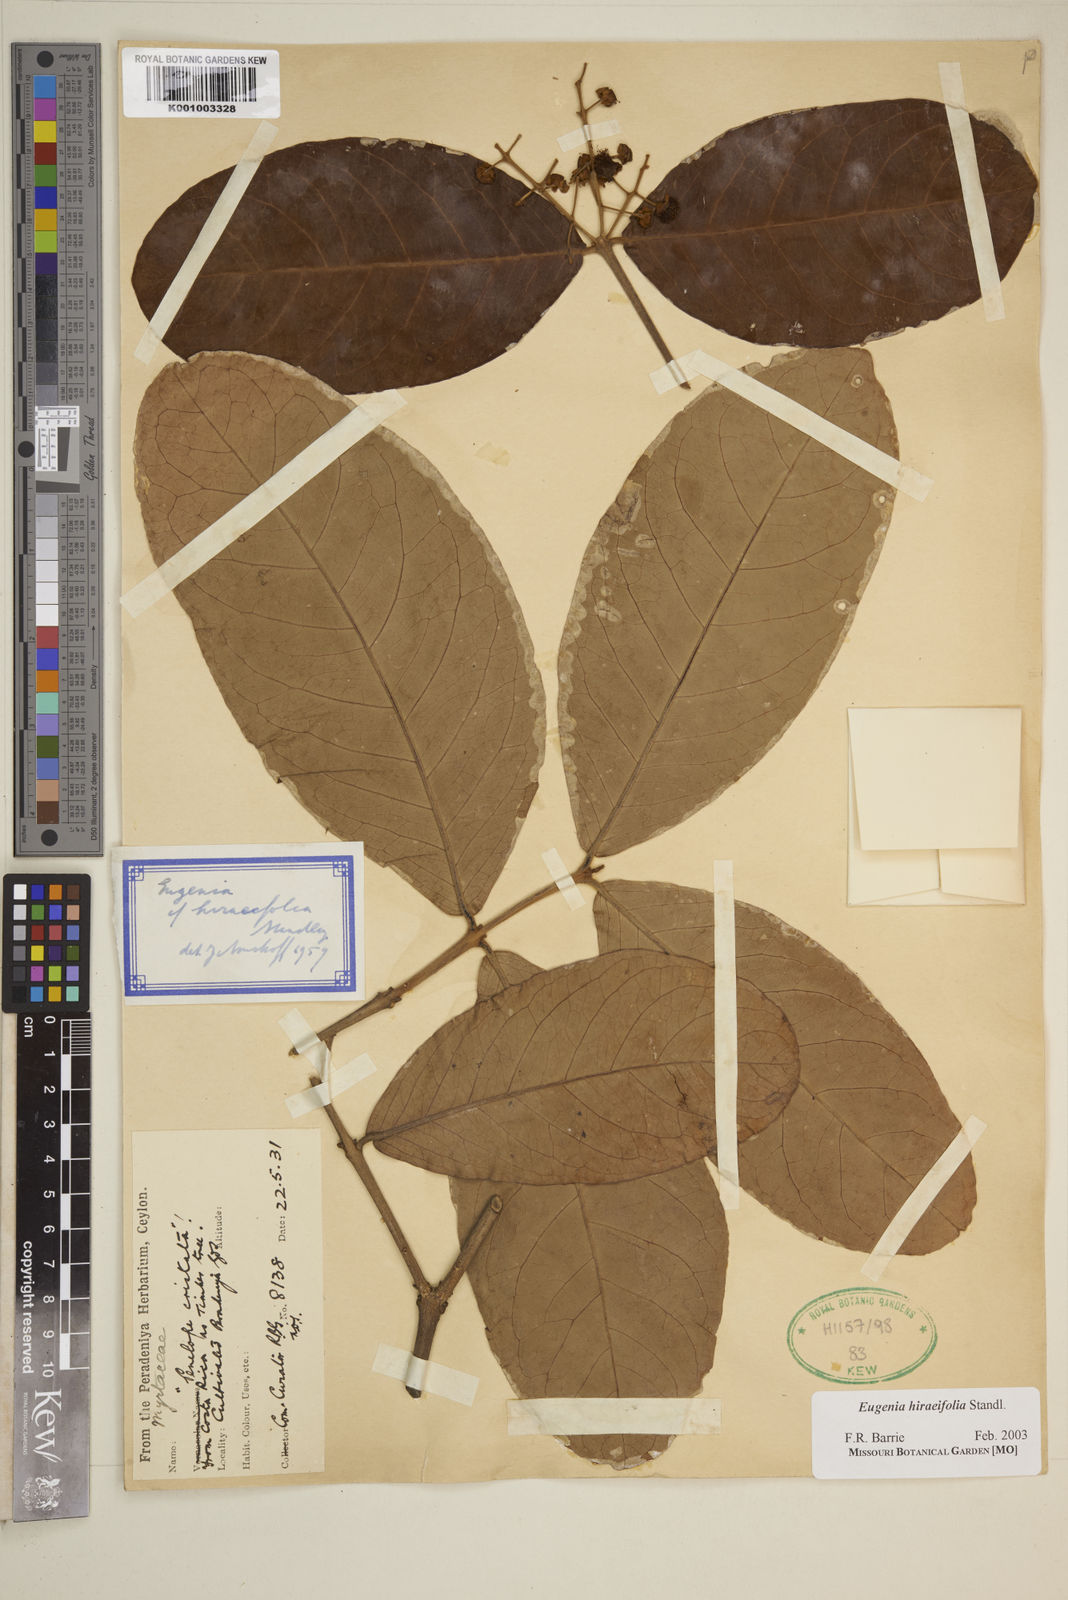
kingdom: Plantae
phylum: Tracheophyta
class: Magnoliopsida
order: Myrtales
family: Myrtaceae
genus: Eugenia
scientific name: Eugenia hiraeifolia
